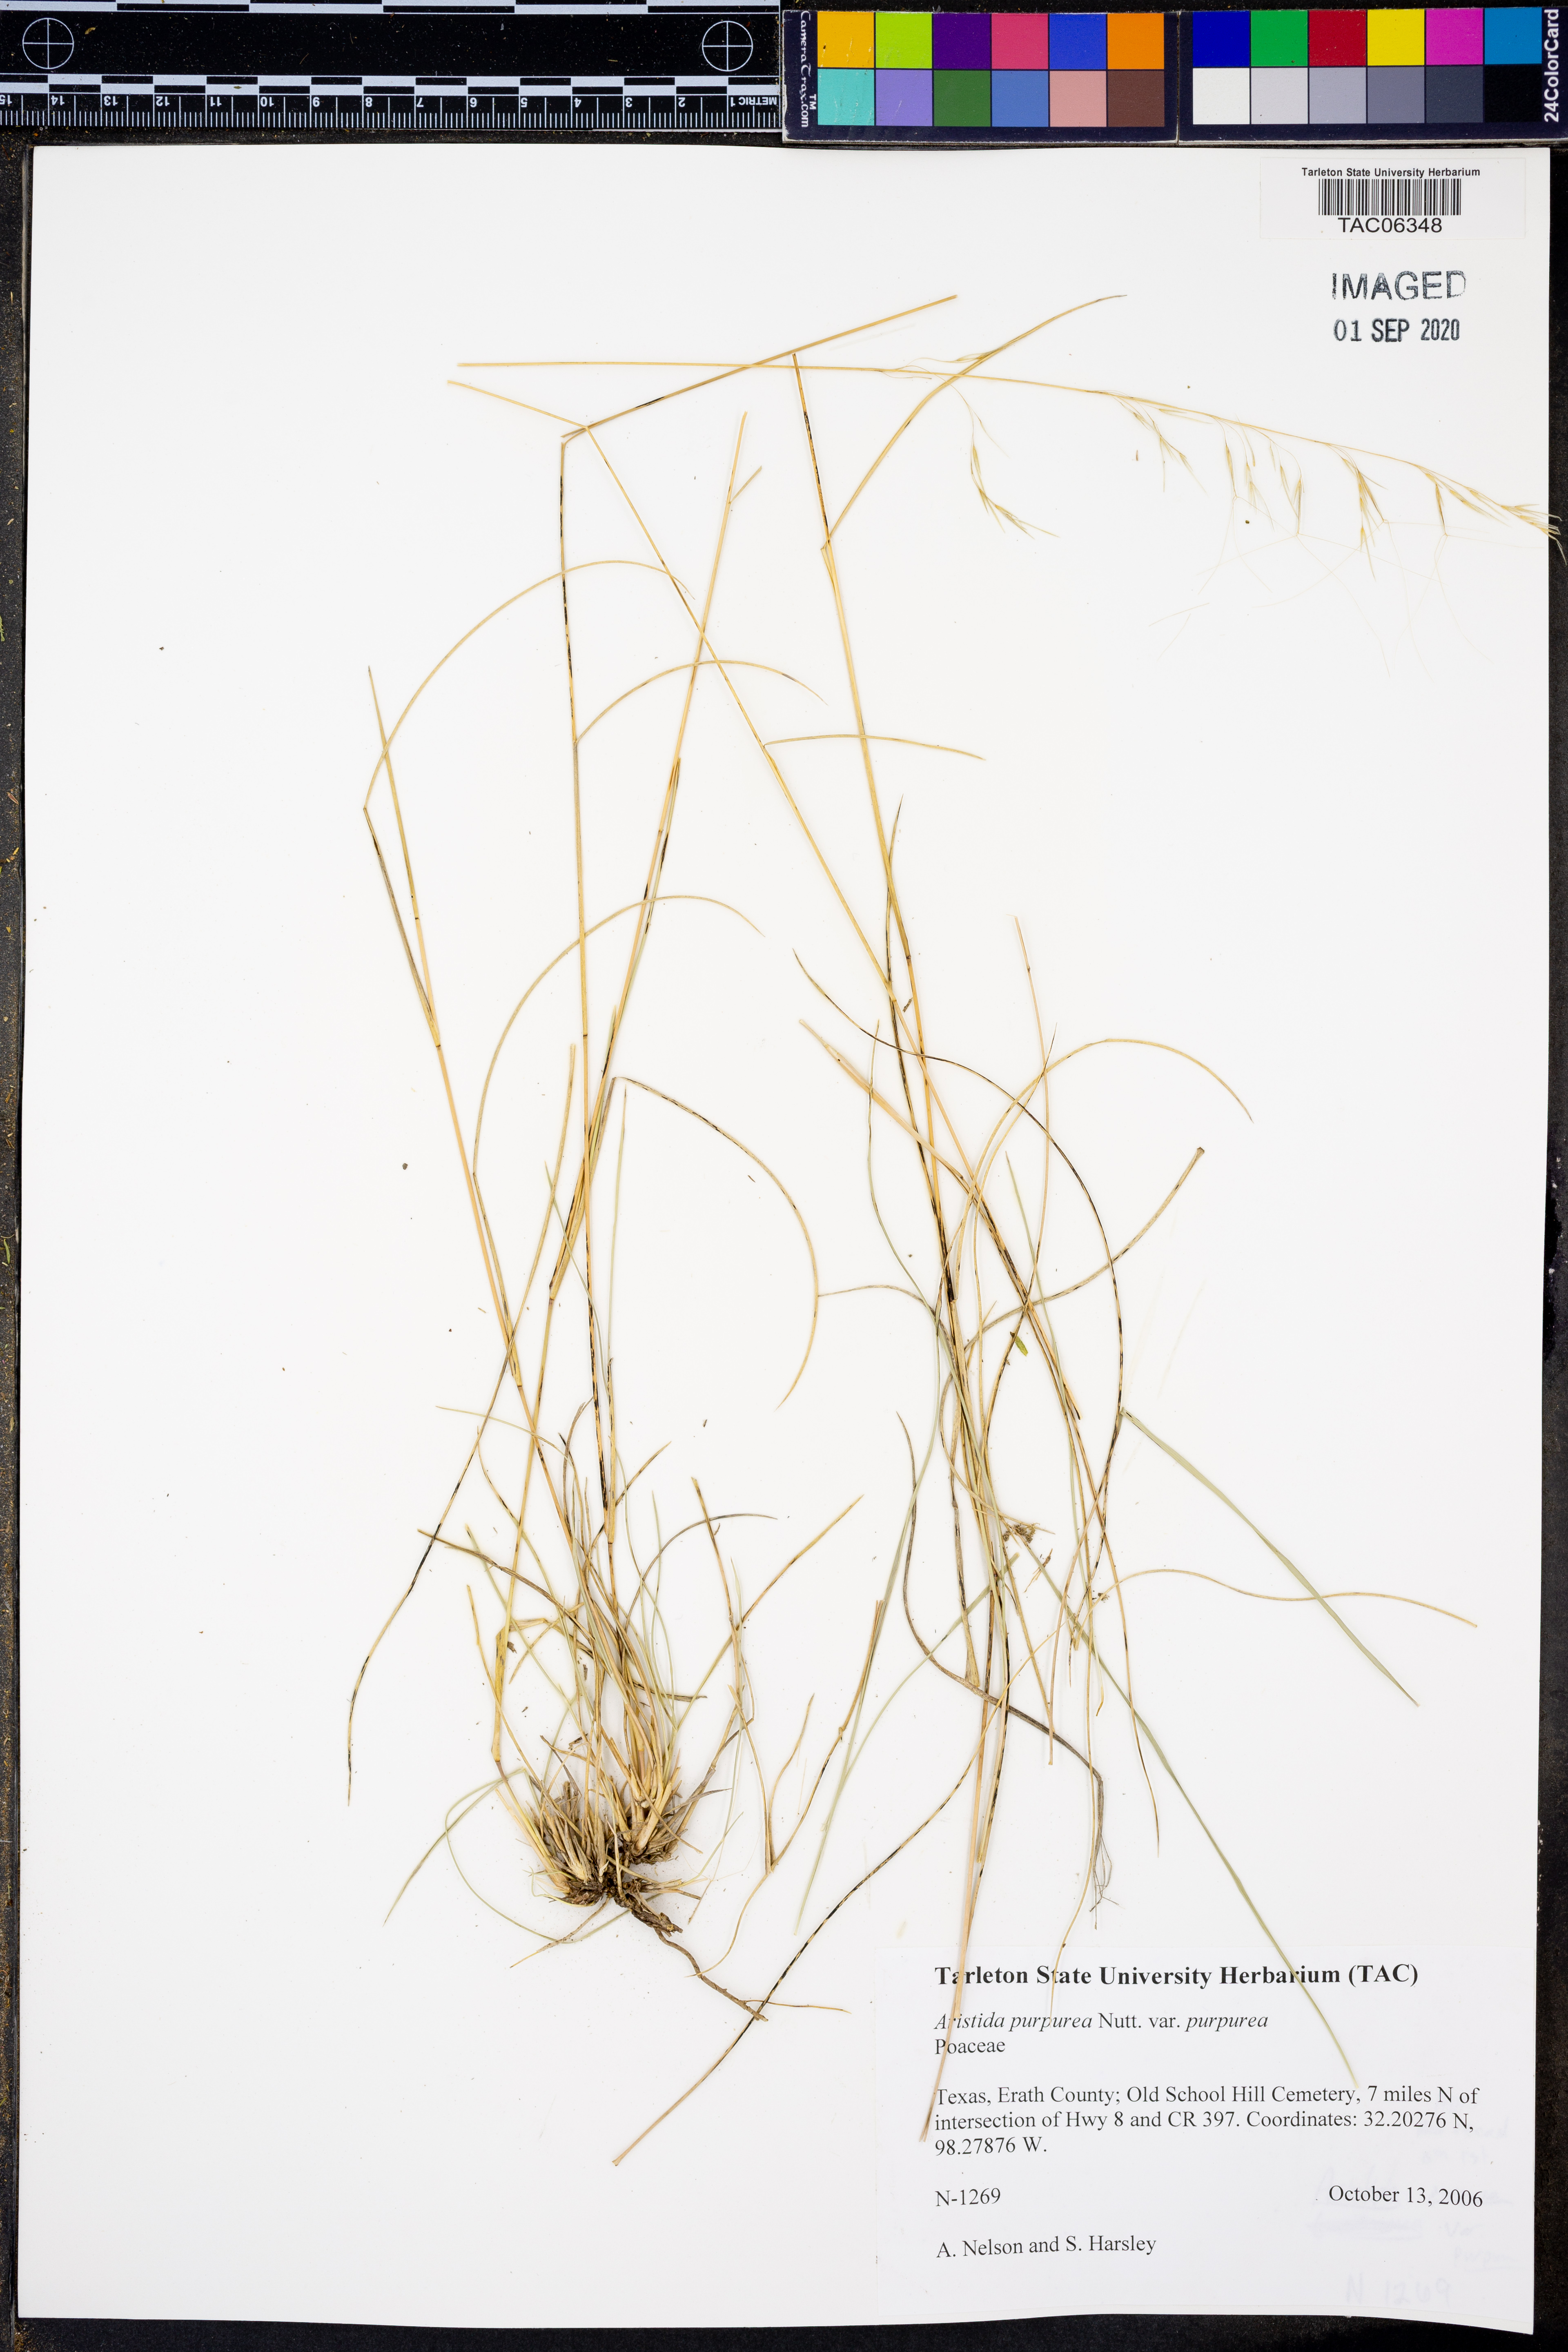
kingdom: Plantae
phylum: Tracheophyta
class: Liliopsida
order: Poales
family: Poaceae
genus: Aristida
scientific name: Aristida purpurea
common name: Purple threeawn
